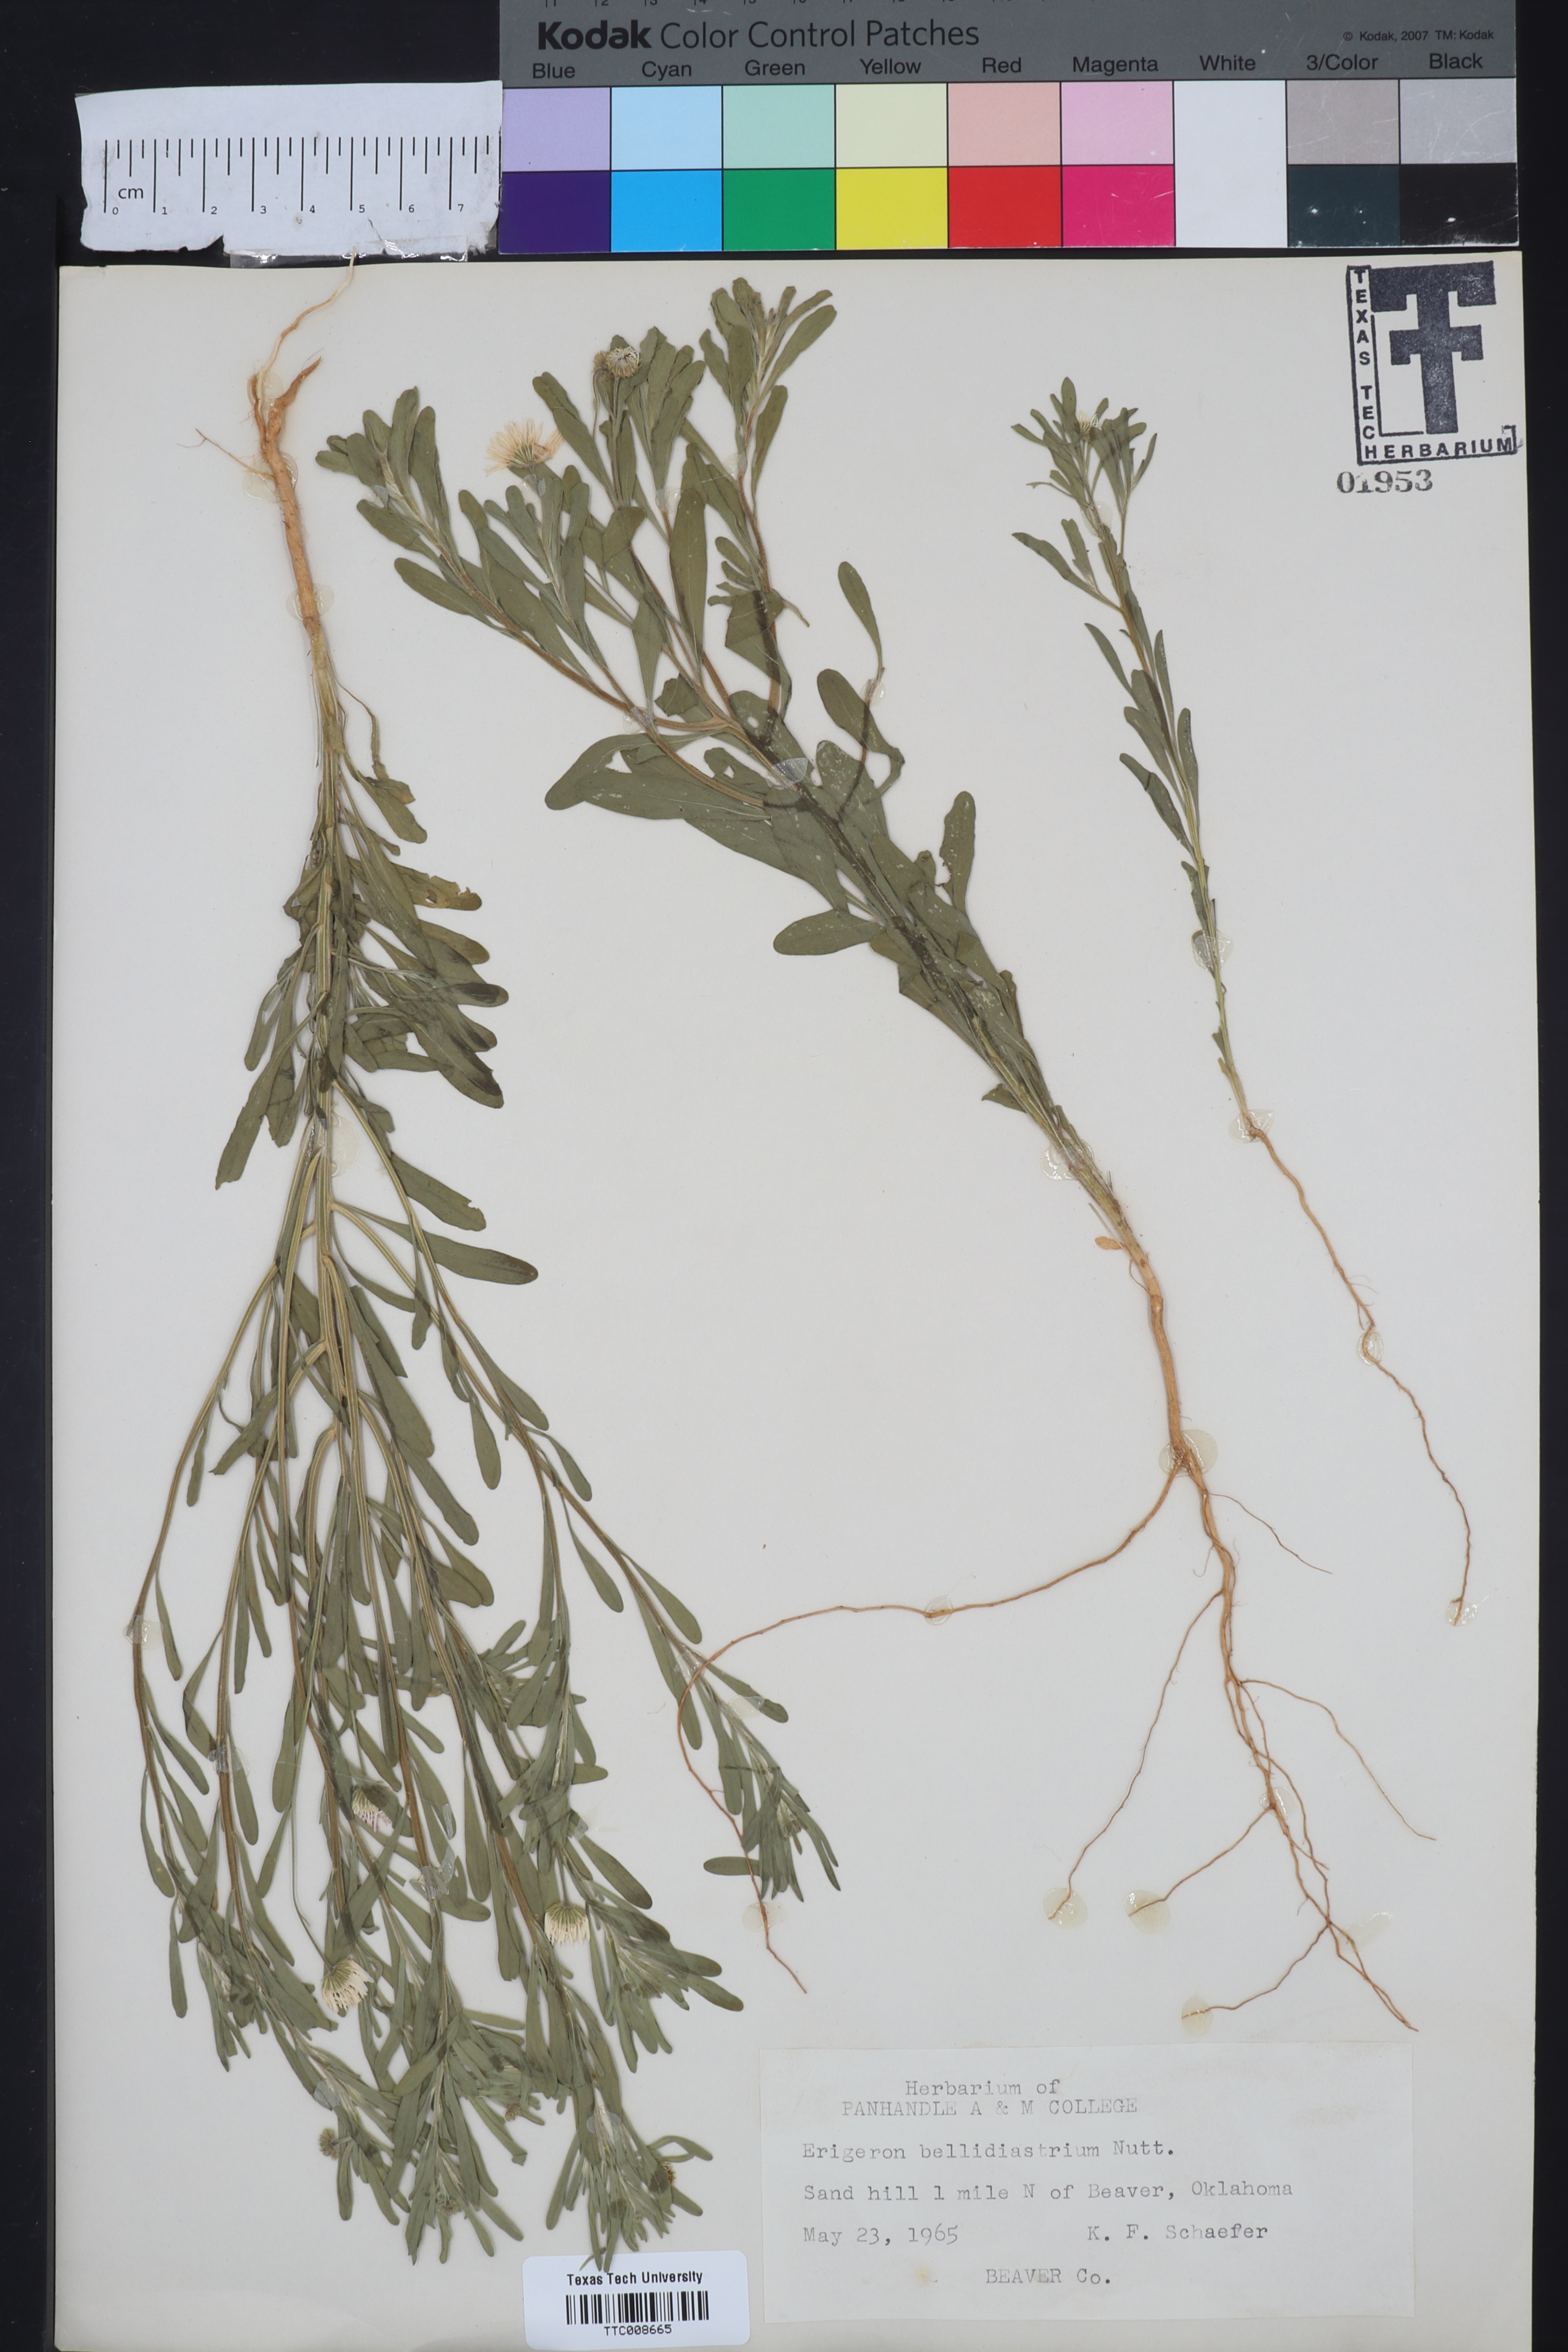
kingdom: Plantae
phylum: Tracheophyta
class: Magnoliopsida
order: Asterales
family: Asteraceae
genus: Erigeron
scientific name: Erigeron bellidiastrum
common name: Sand fleabane
